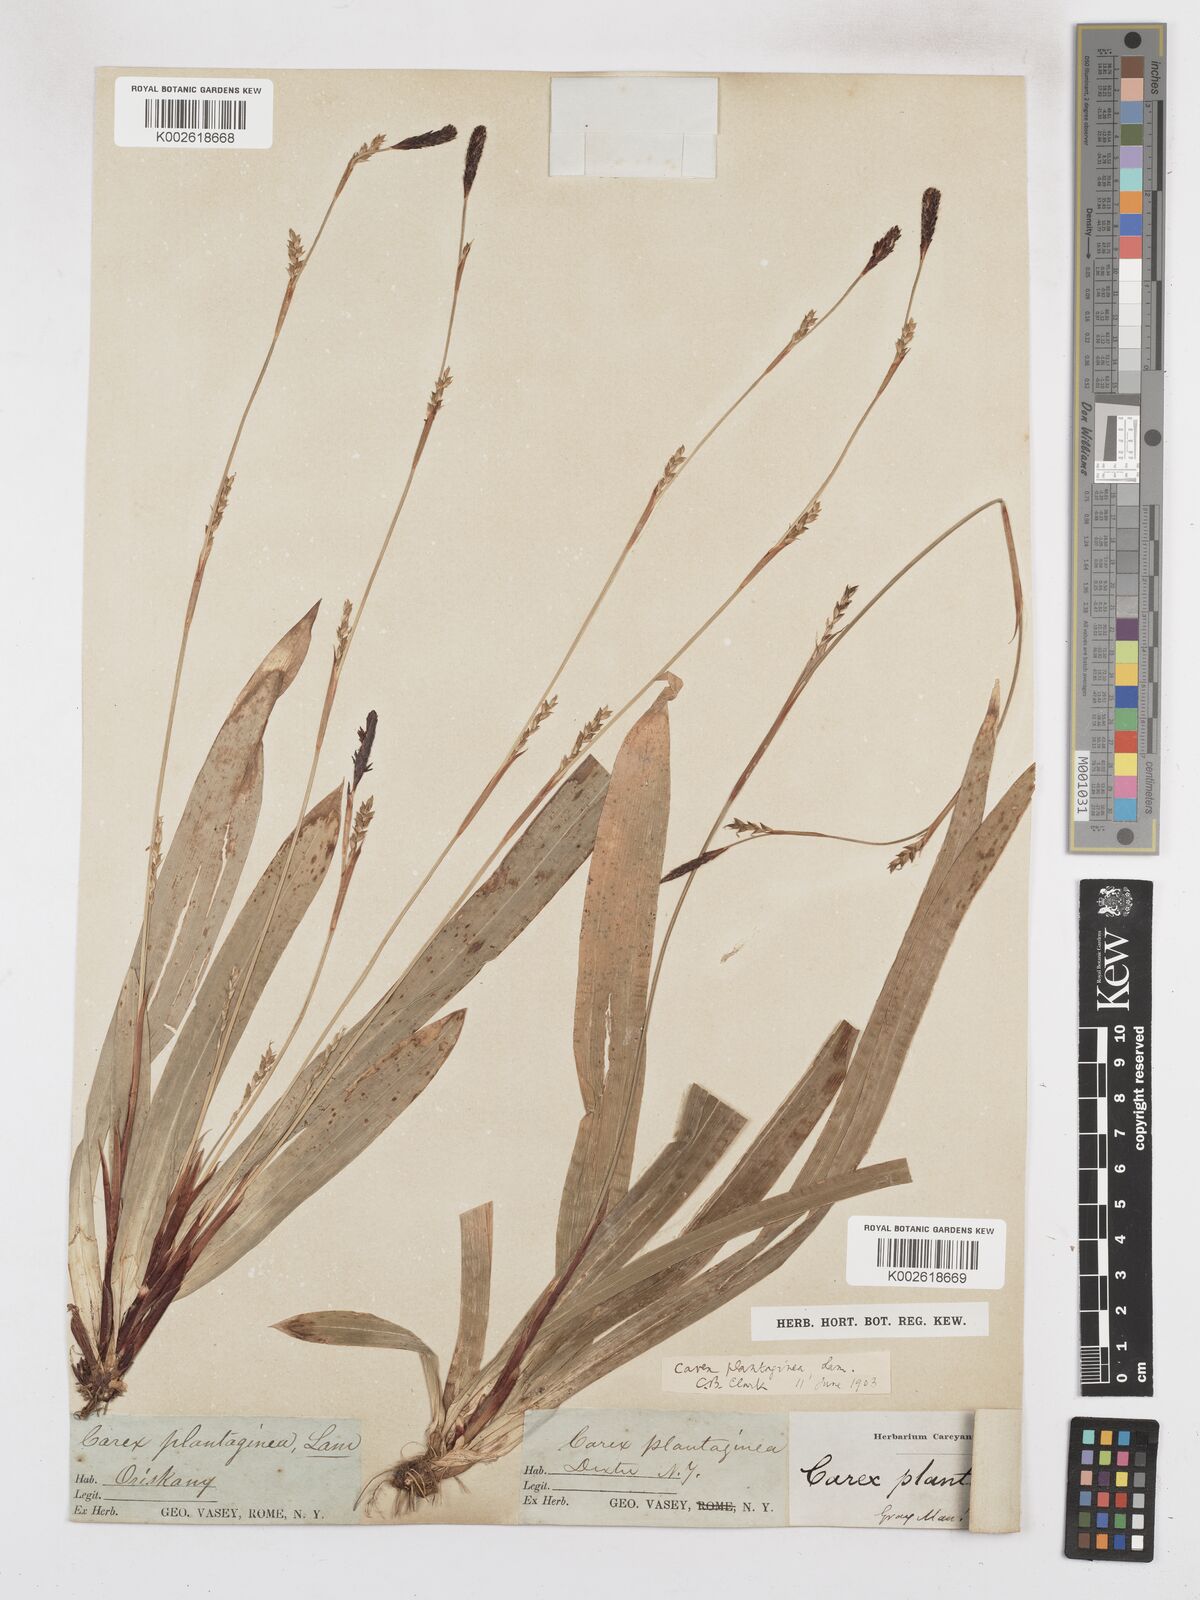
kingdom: Plantae
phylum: Tracheophyta
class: Liliopsida
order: Poales
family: Cyperaceae
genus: Carex
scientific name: Carex plantaginea
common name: Plantain-leaved sedge
